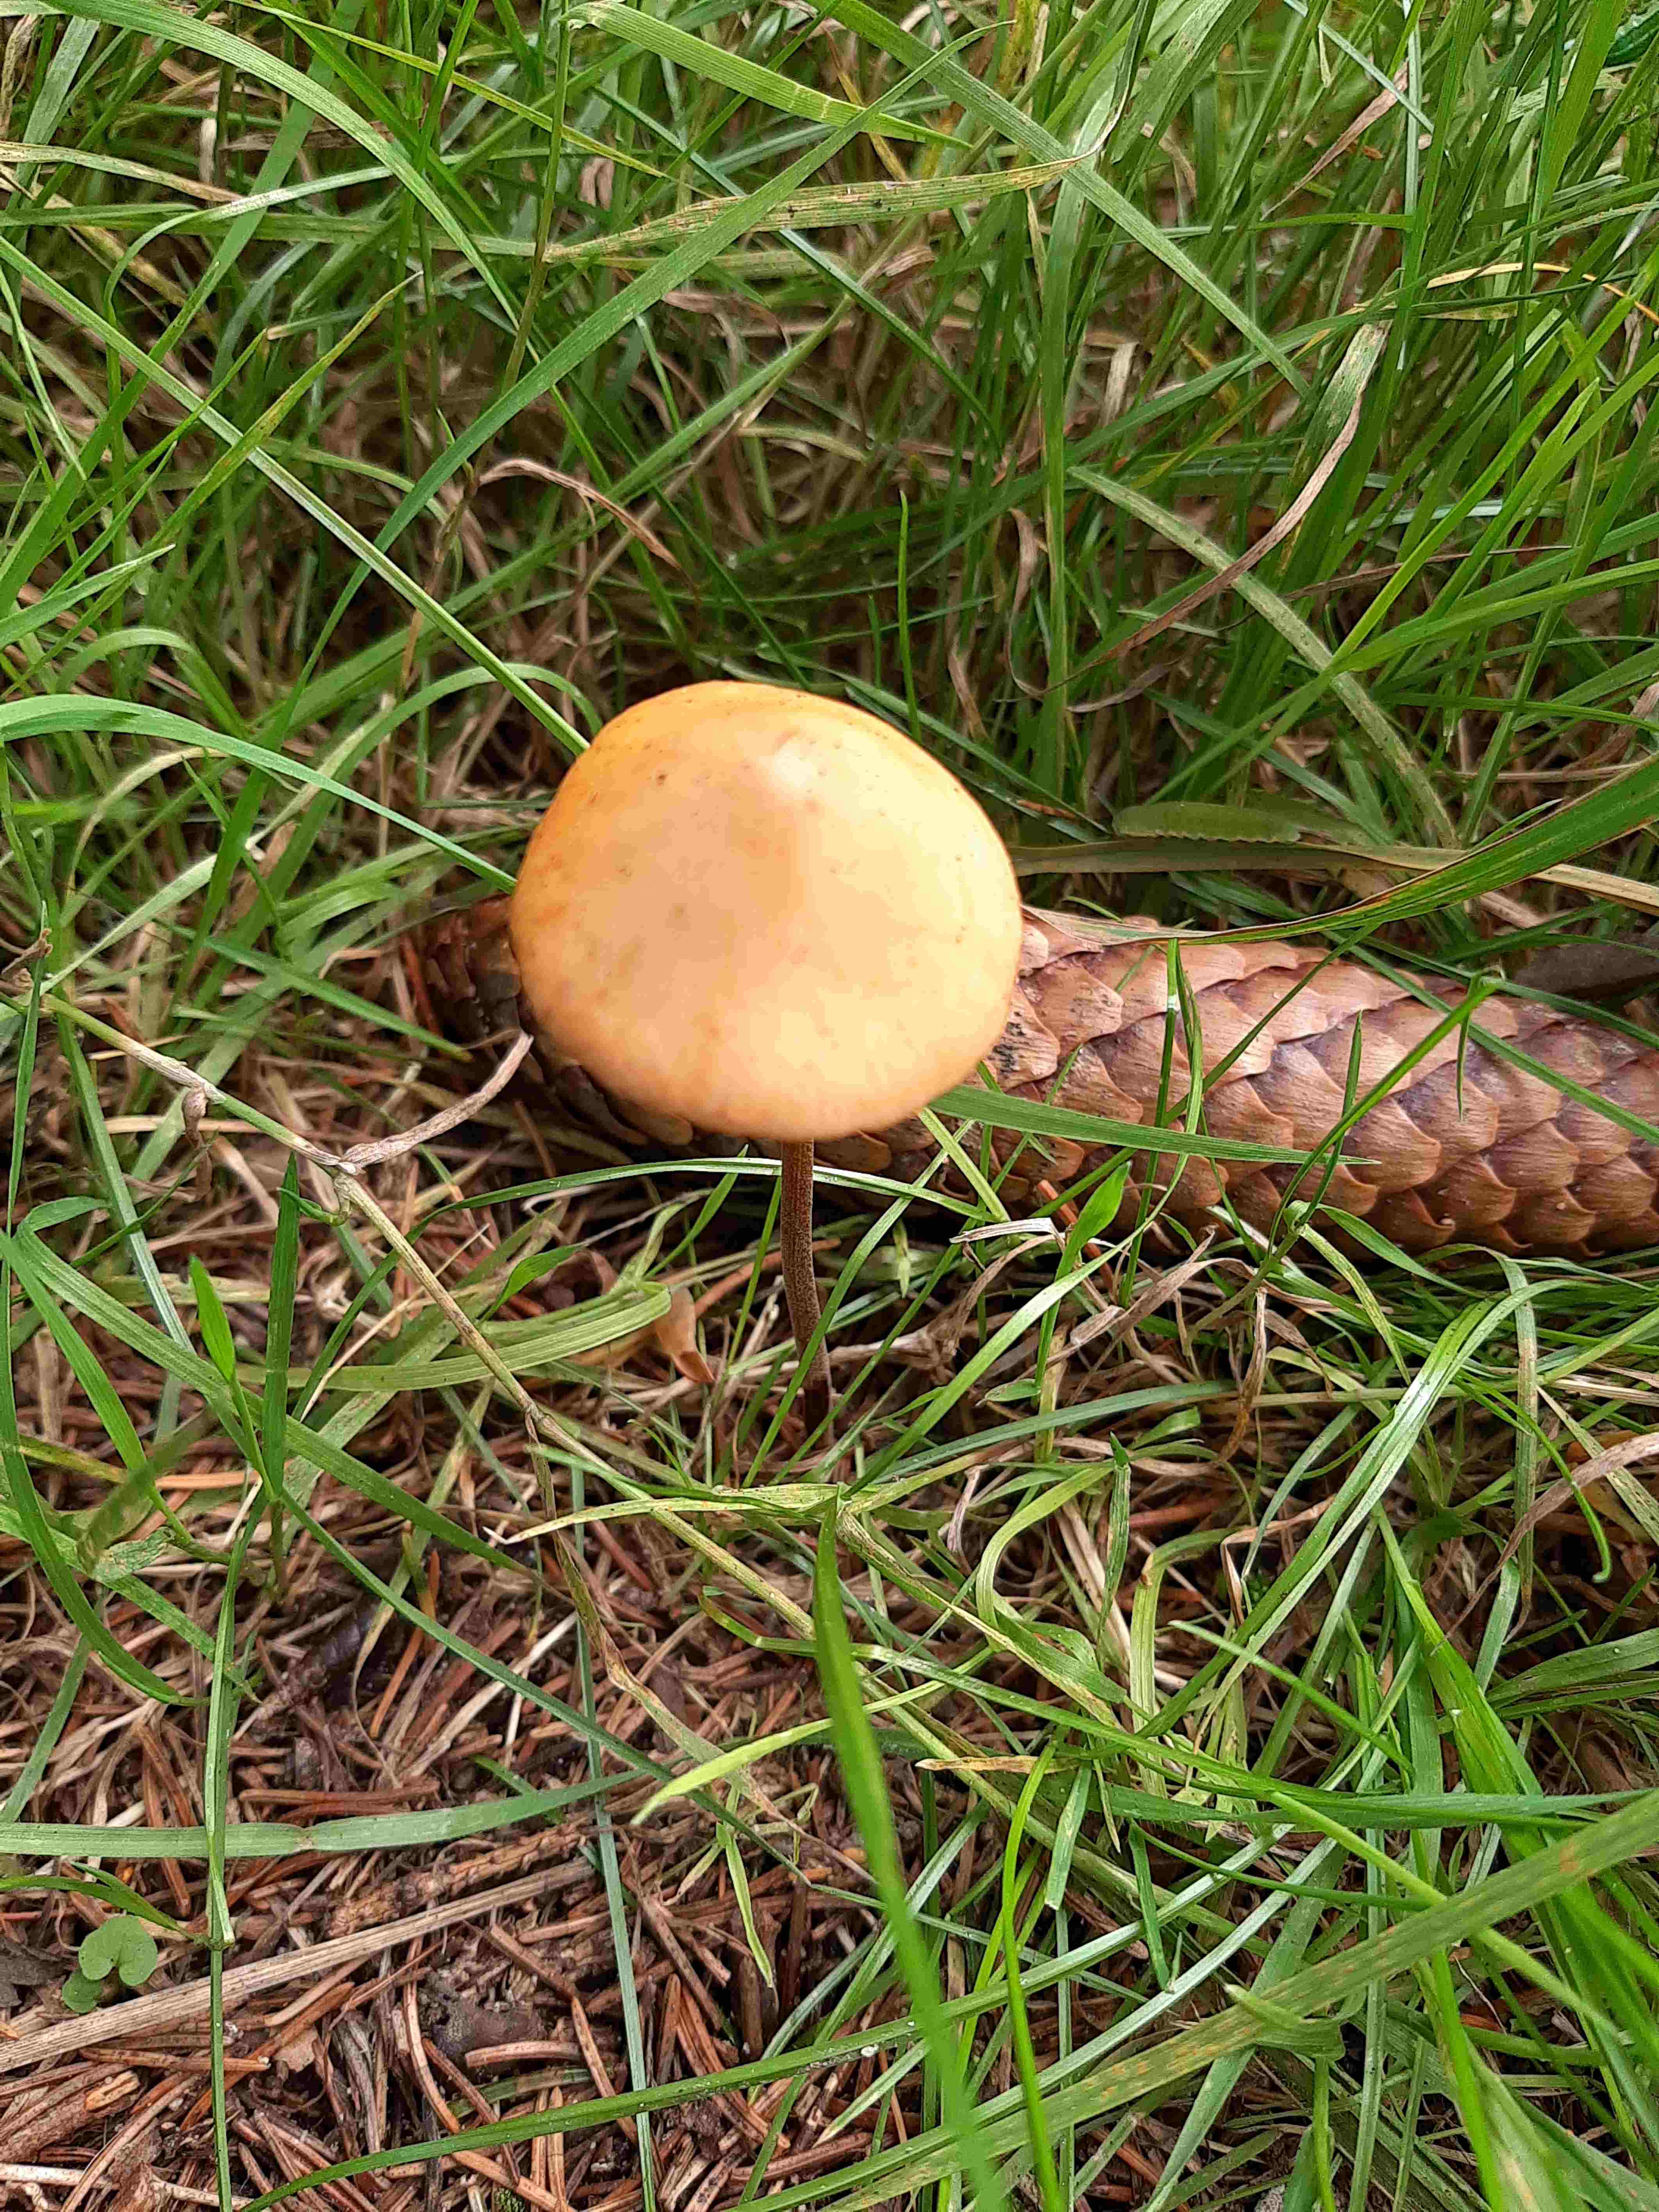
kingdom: Fungi
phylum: Basidiomycota
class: Agaricomycetes
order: Agaricales
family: Bolbitiaceae
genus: Conocybe
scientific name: Conocybe
